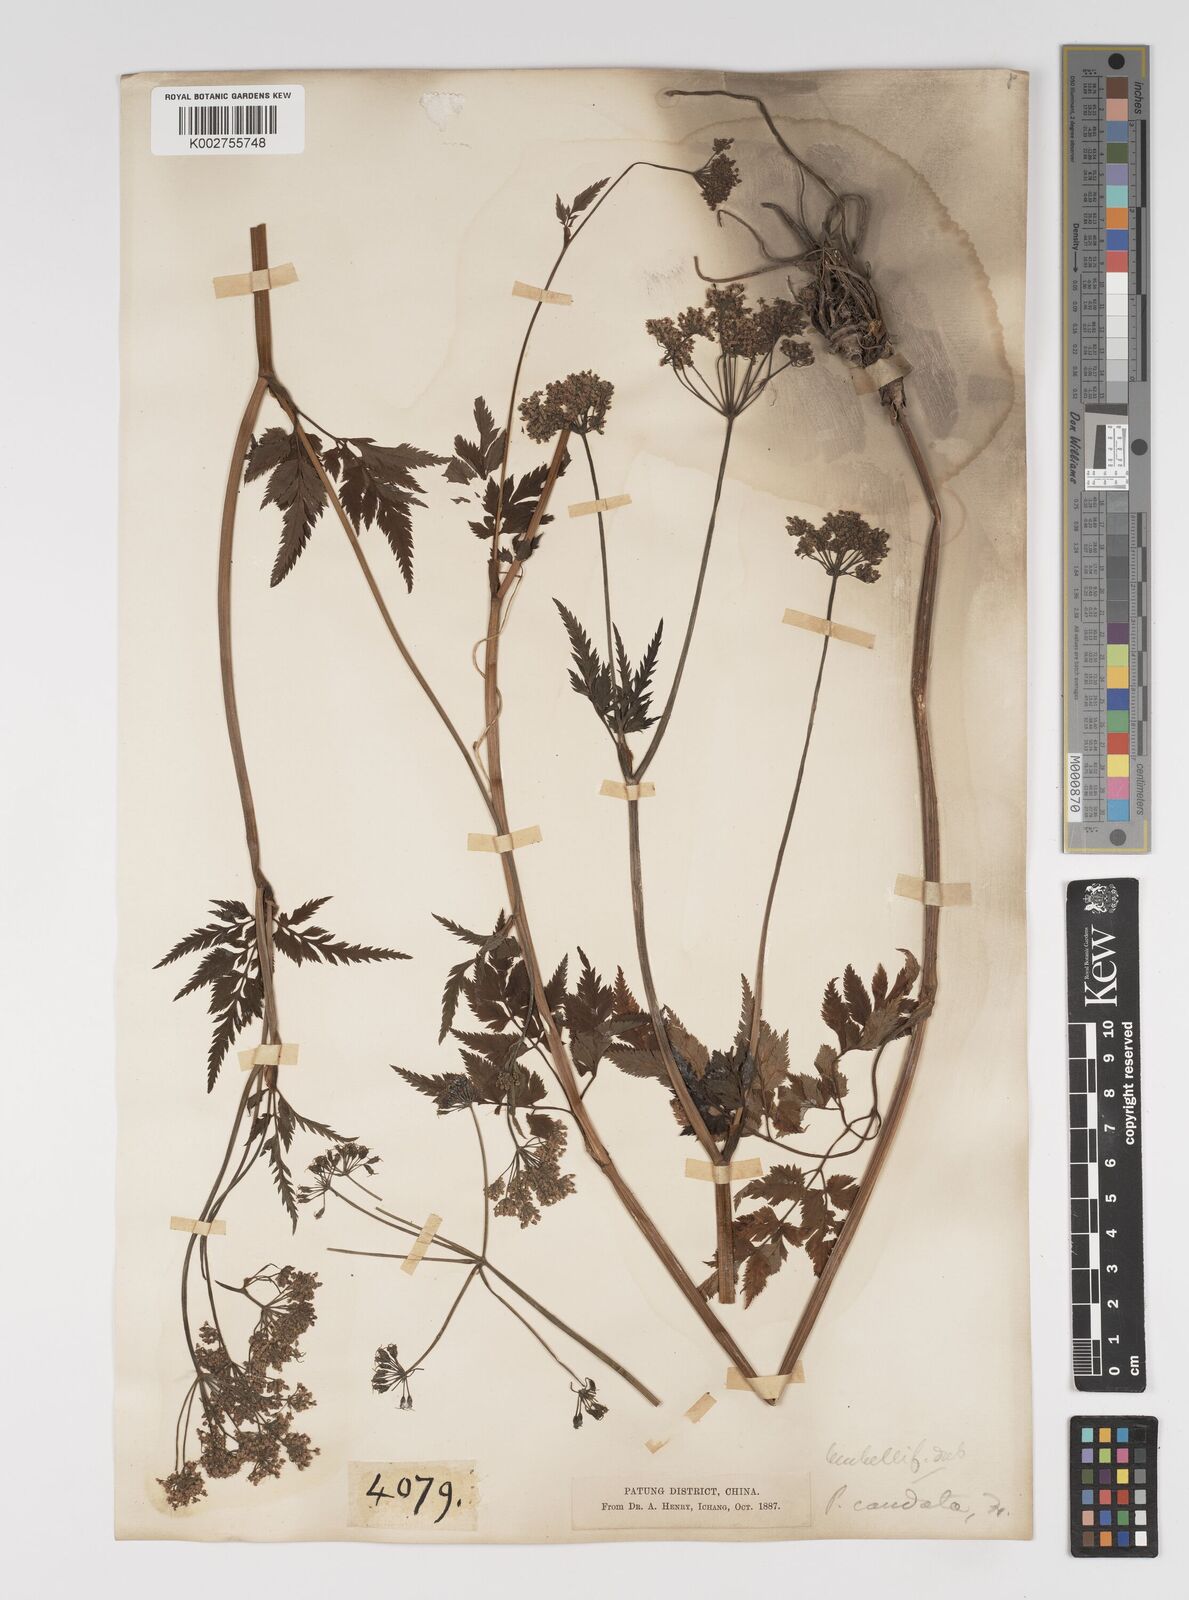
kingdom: Plantae
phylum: Tracheophyta
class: Magnoliopsida
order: Apiales
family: Apiaceae
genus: Pimpinella
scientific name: Pimpinella caudata
